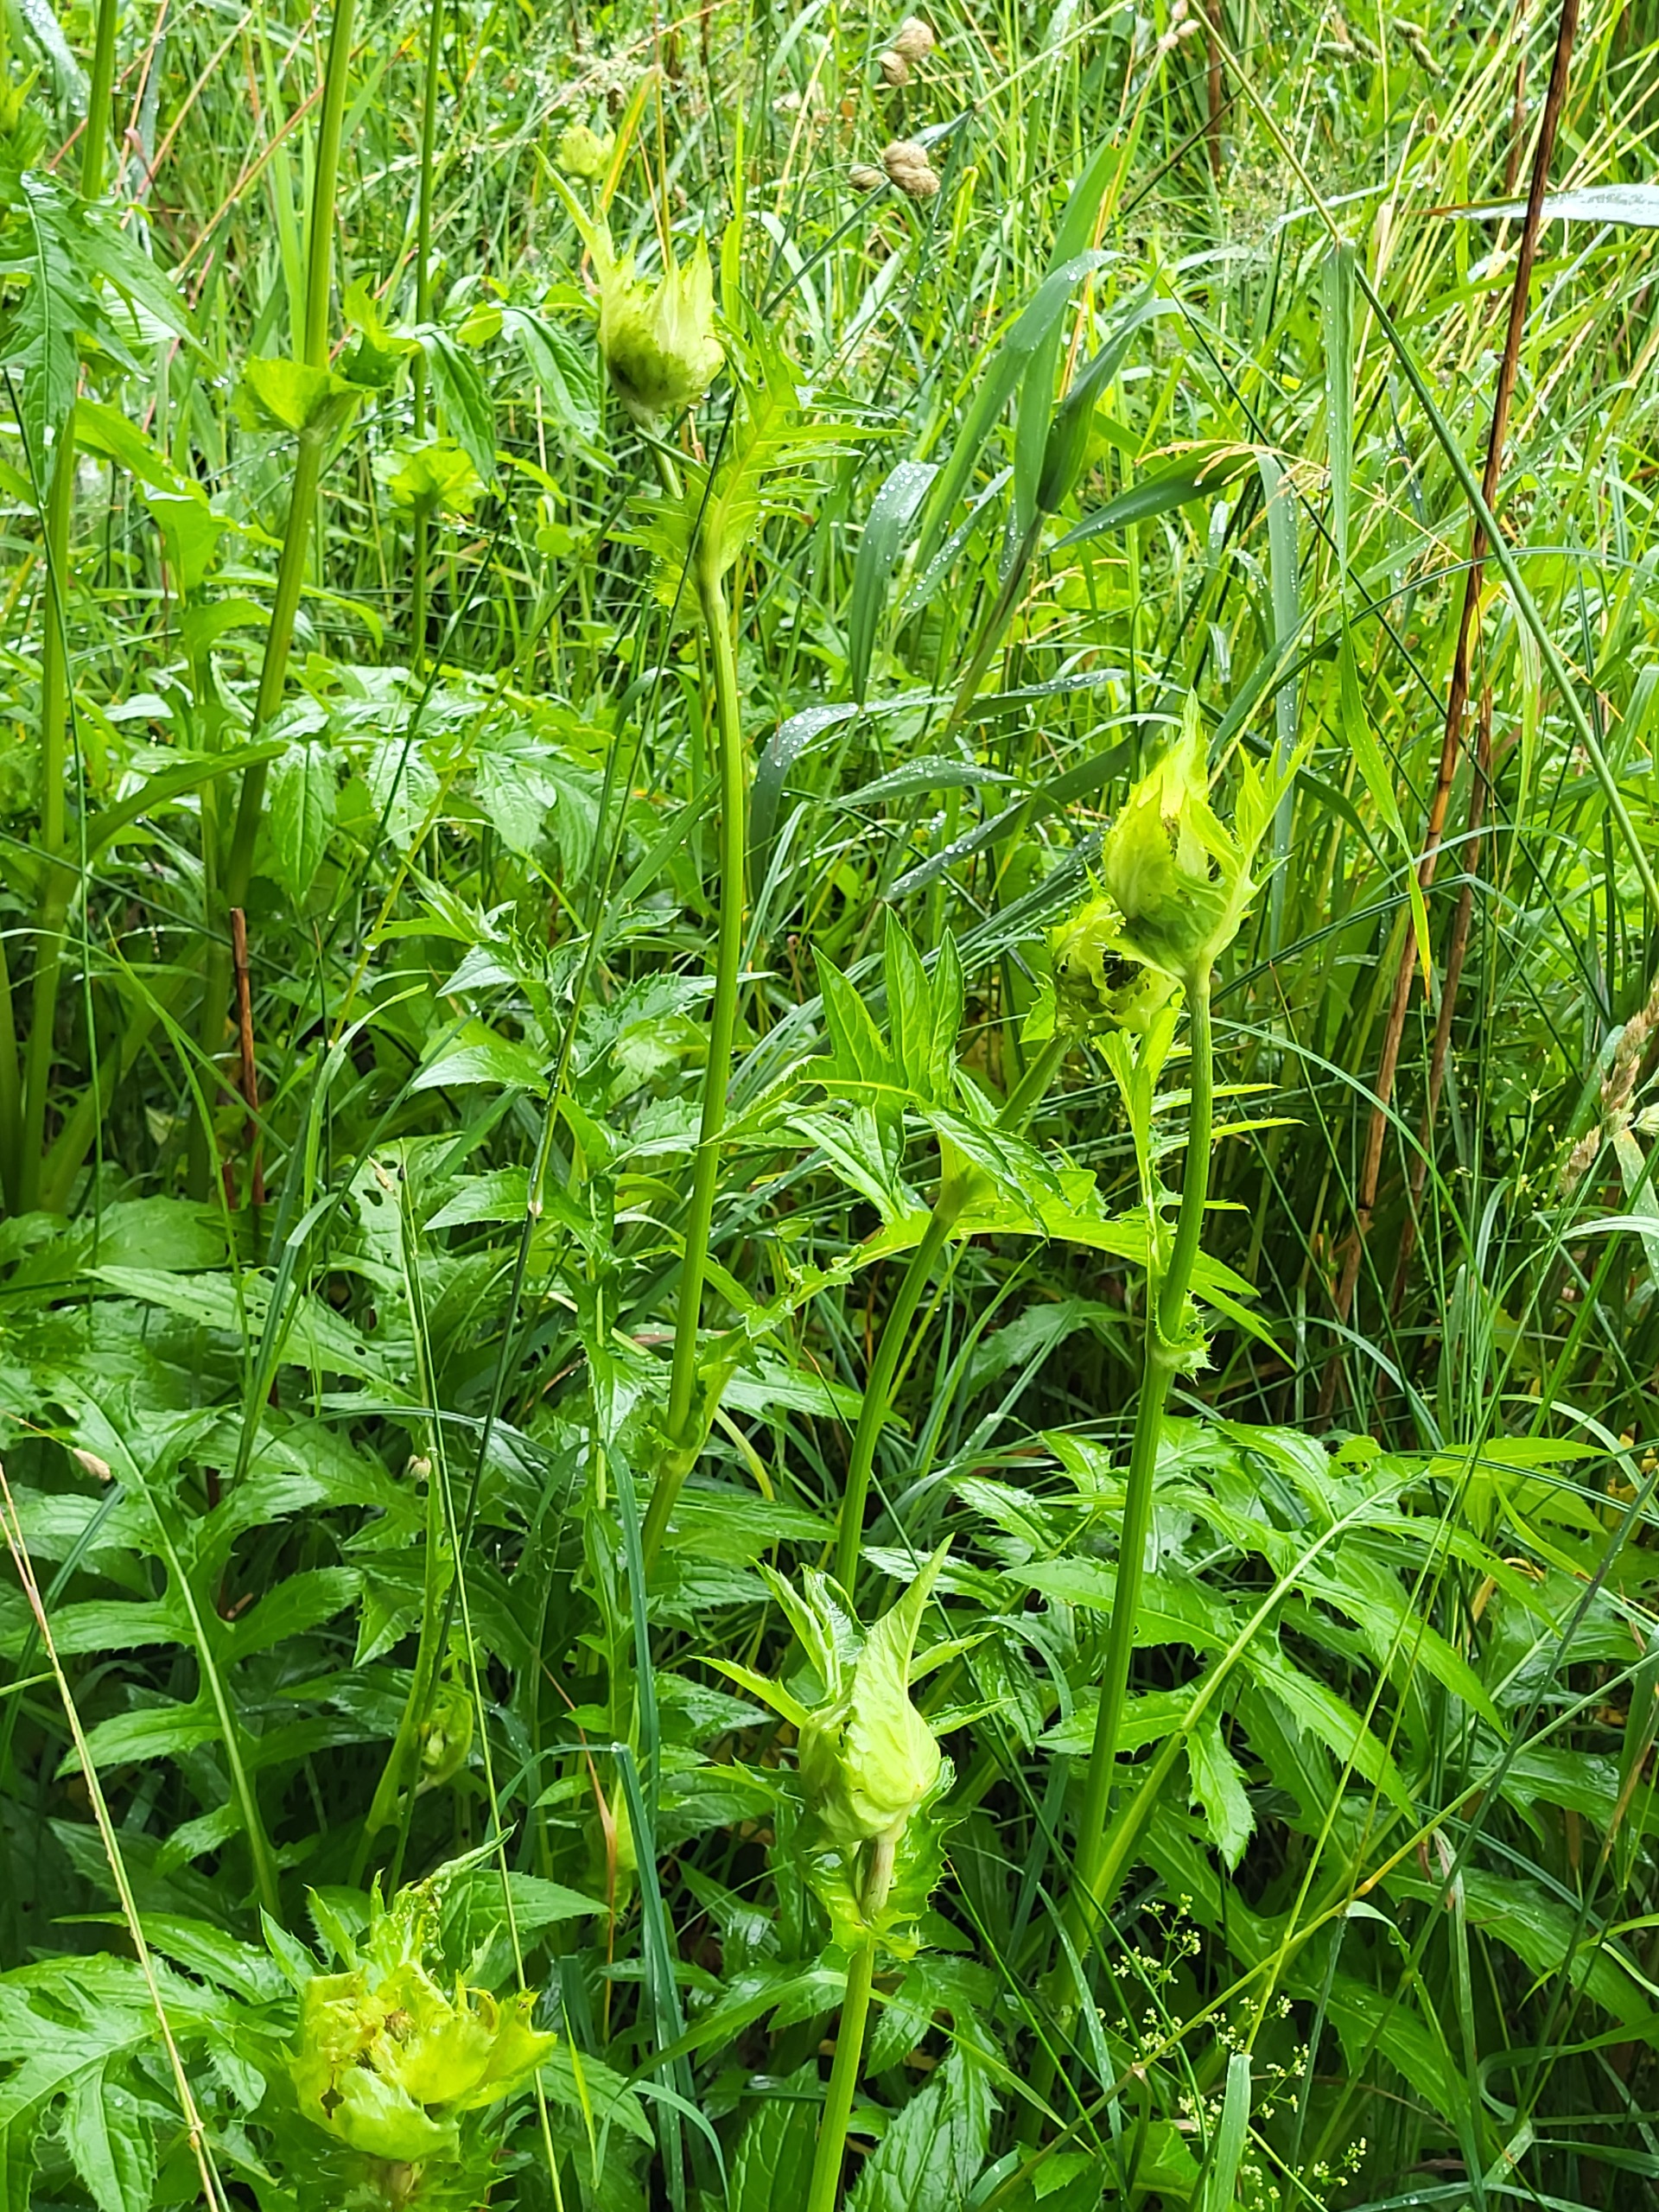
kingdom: Plantae
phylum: Tracheophyta
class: Magnoliopsida
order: Asterales
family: Asteraceae
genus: Cirsium
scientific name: Cirsium oleraceum
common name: Kål-tidsel
